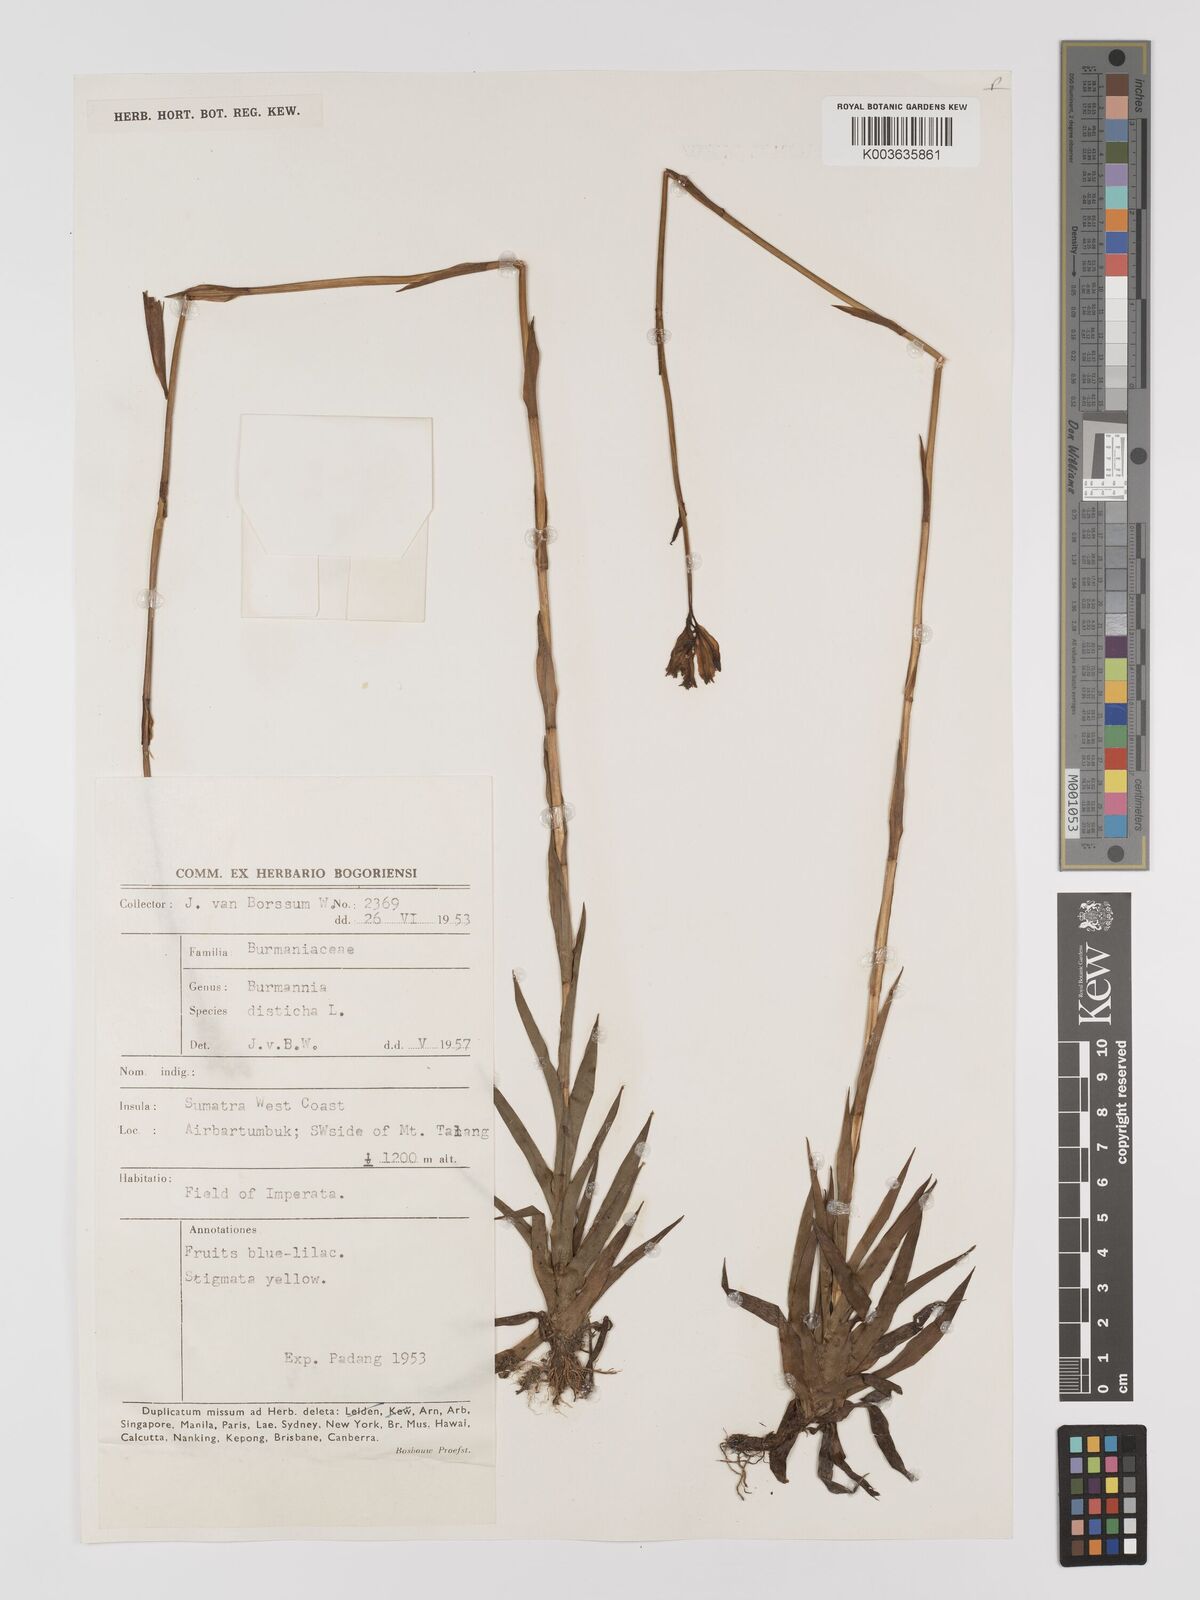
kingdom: Plantae
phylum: Tracheophyta
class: Liliopsida
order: Dioscoreales
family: Burmanniaceae
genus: Burmannia
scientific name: Burmannia disticha
